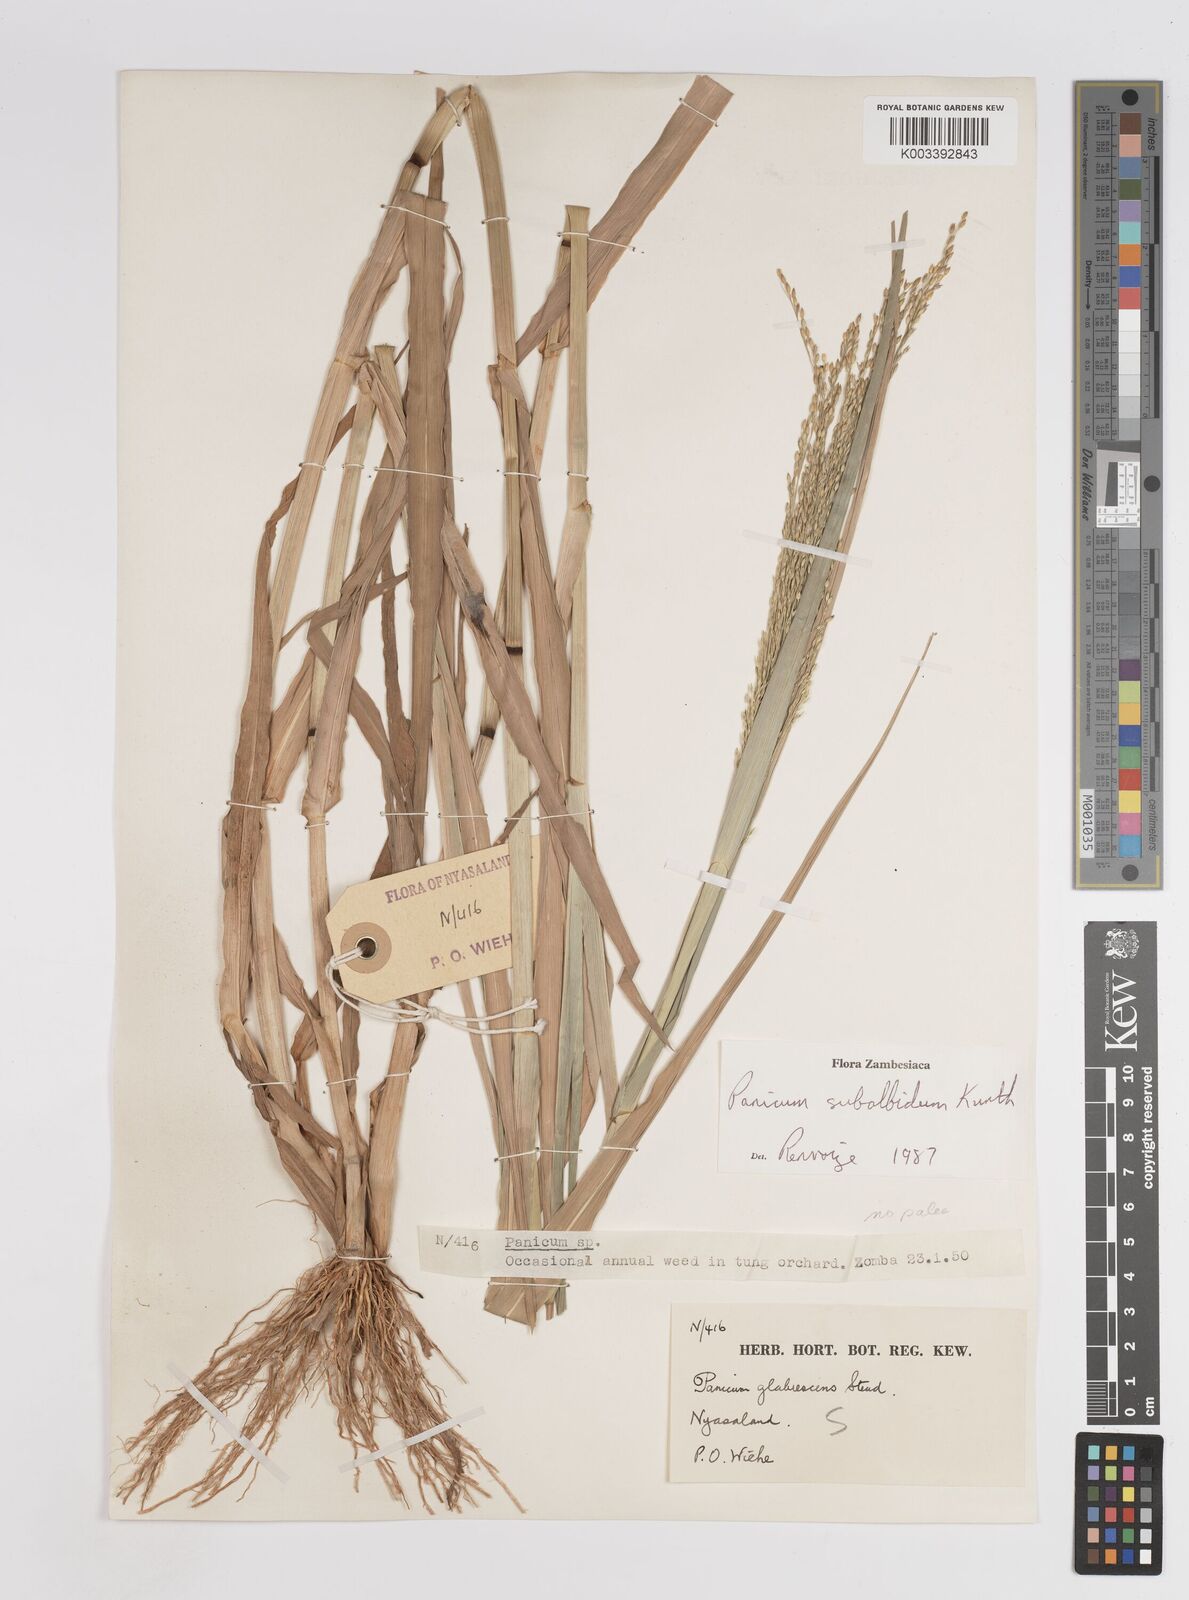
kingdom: Plantae
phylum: Tracheophyta
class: Liliopsida
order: Poales
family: Poaceae
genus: Panicum
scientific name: Panicum subalbidum
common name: Elbow buffalo grass
